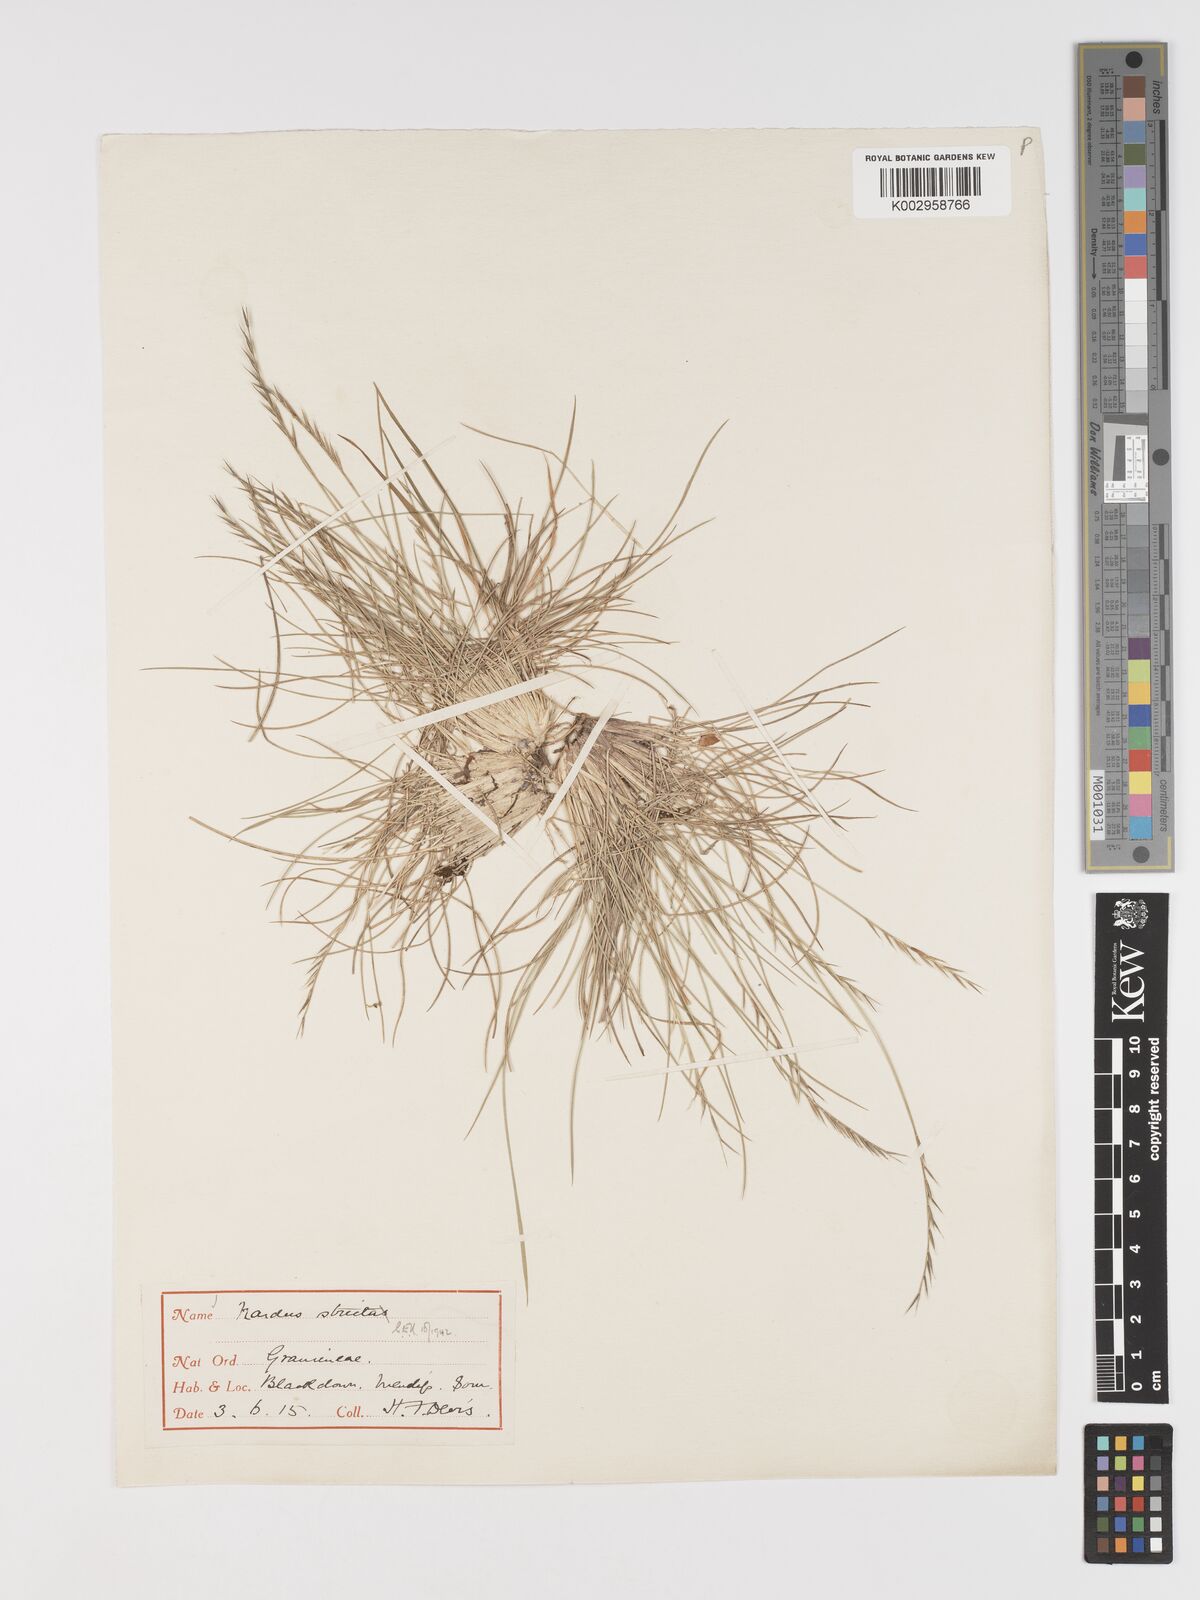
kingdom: Plantae
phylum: Tracheophyta
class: Liliopsida
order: Poales
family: Poaceae
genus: Nardus
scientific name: Nardus stricta
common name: Mat-grass
